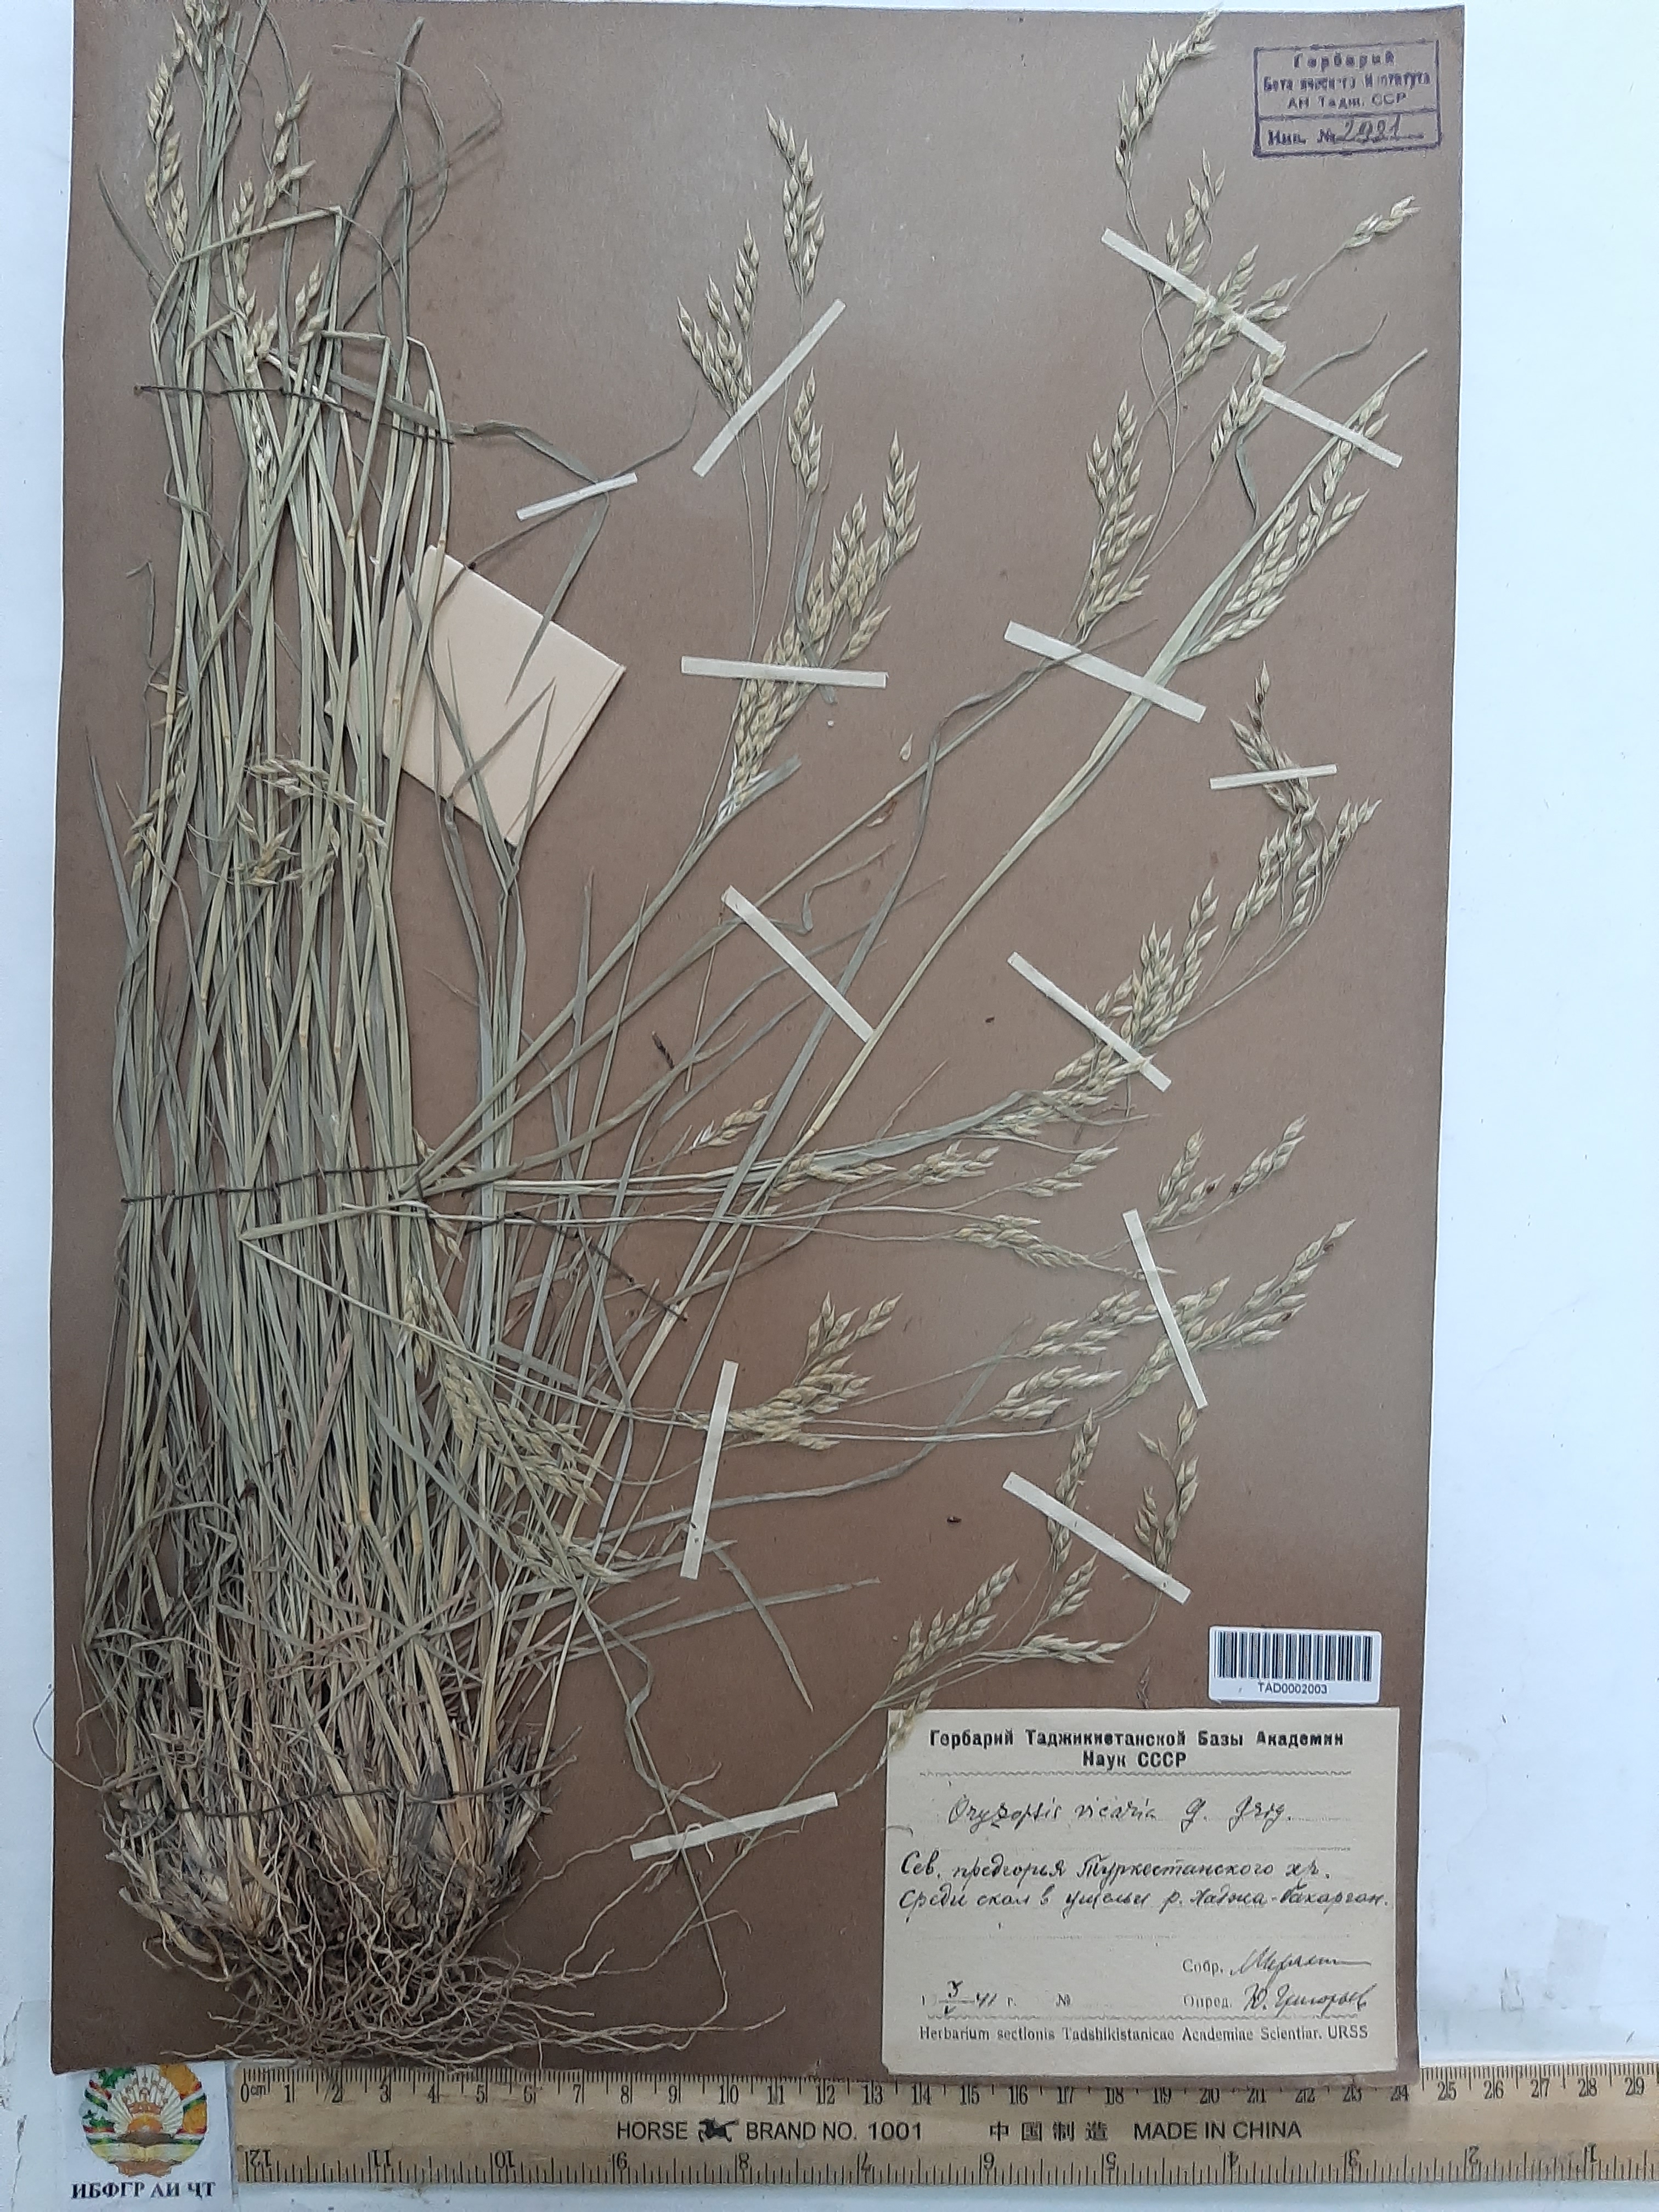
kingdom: Plantae
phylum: Tracheophyta
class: Liliopsida
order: Poales
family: Poaceae
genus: Piptatherum
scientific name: Piptatherum microcarpum
